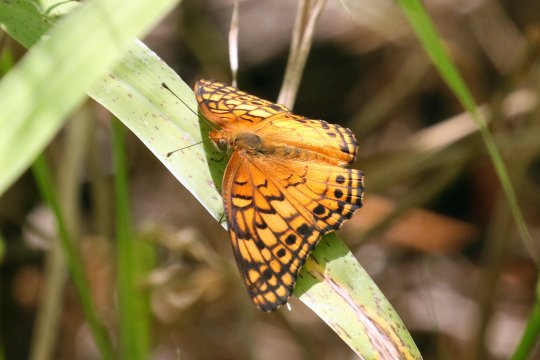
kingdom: Animalia
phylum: Arthropoda
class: Insecta
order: Lepidoptera
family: Nymphalidae
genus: Euptoieta
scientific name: Euptoieta claudia
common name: Variegated Fritillary
